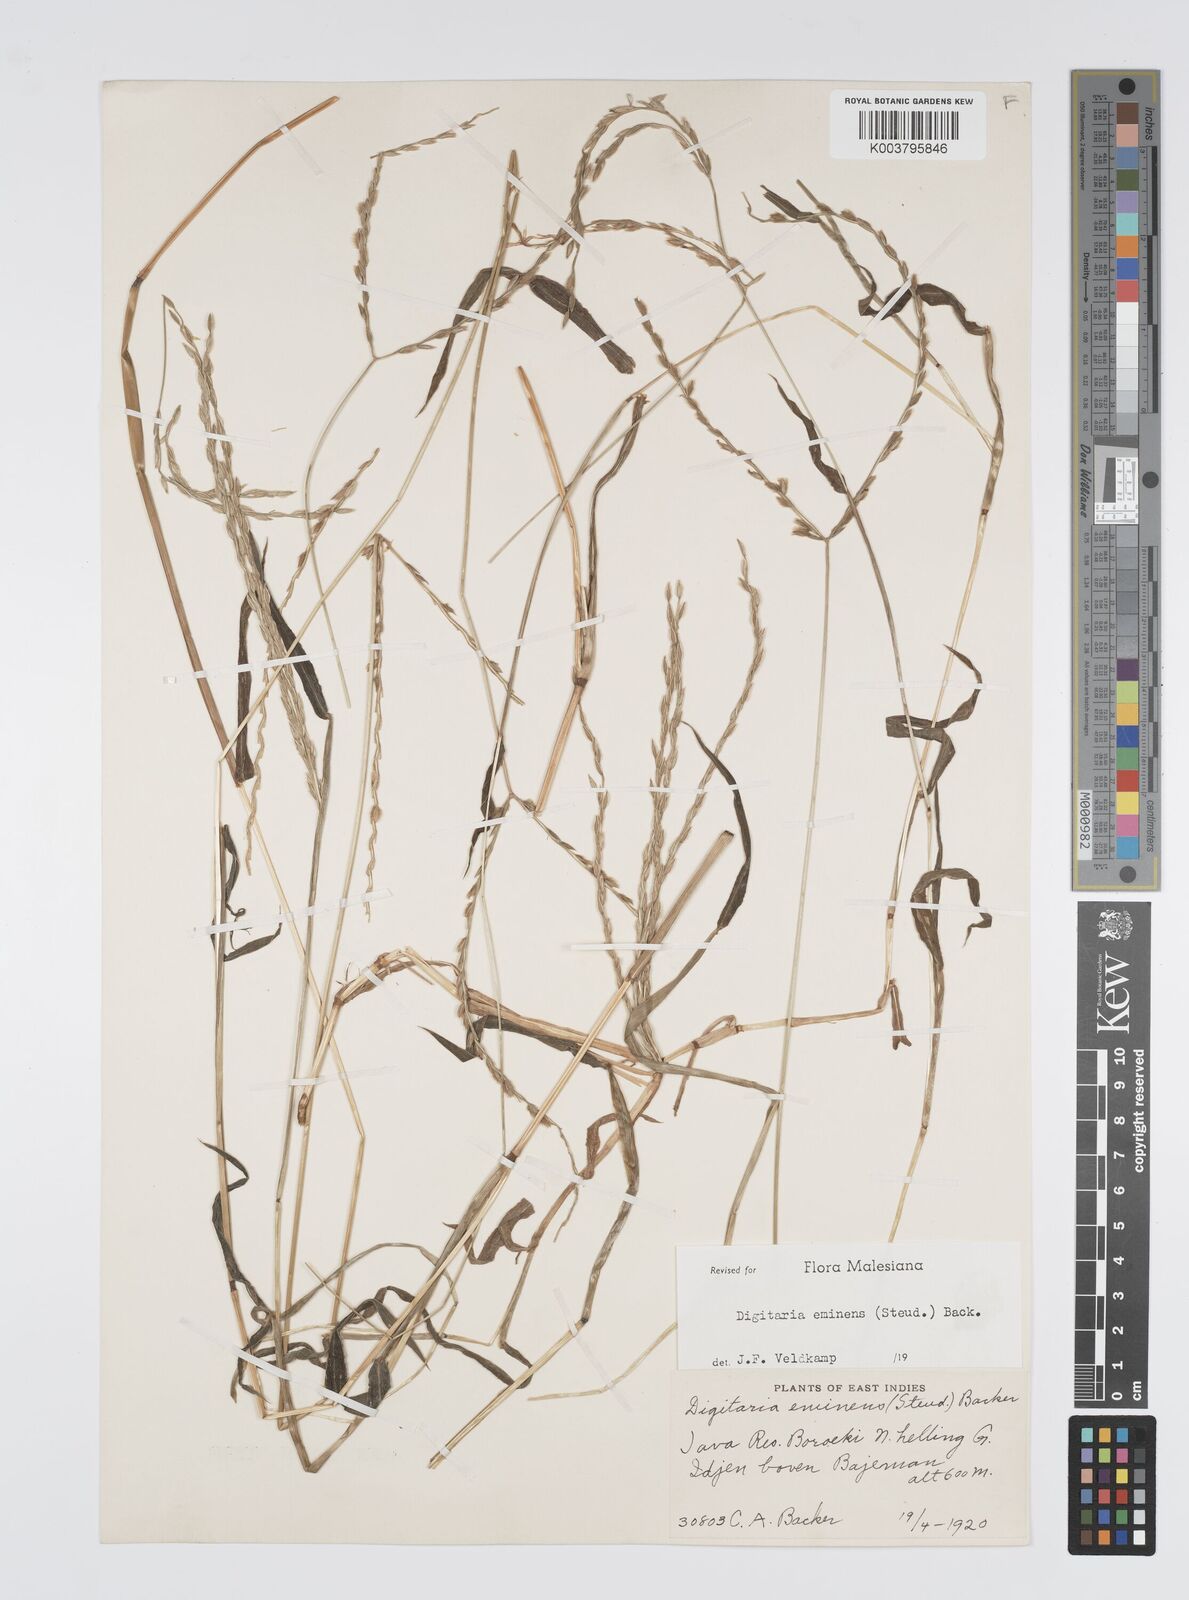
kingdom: Plantae
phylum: Tracheophyta
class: Liliopsida
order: Poales
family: Poaceae
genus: Digitaria
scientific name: Digitaria eminens
